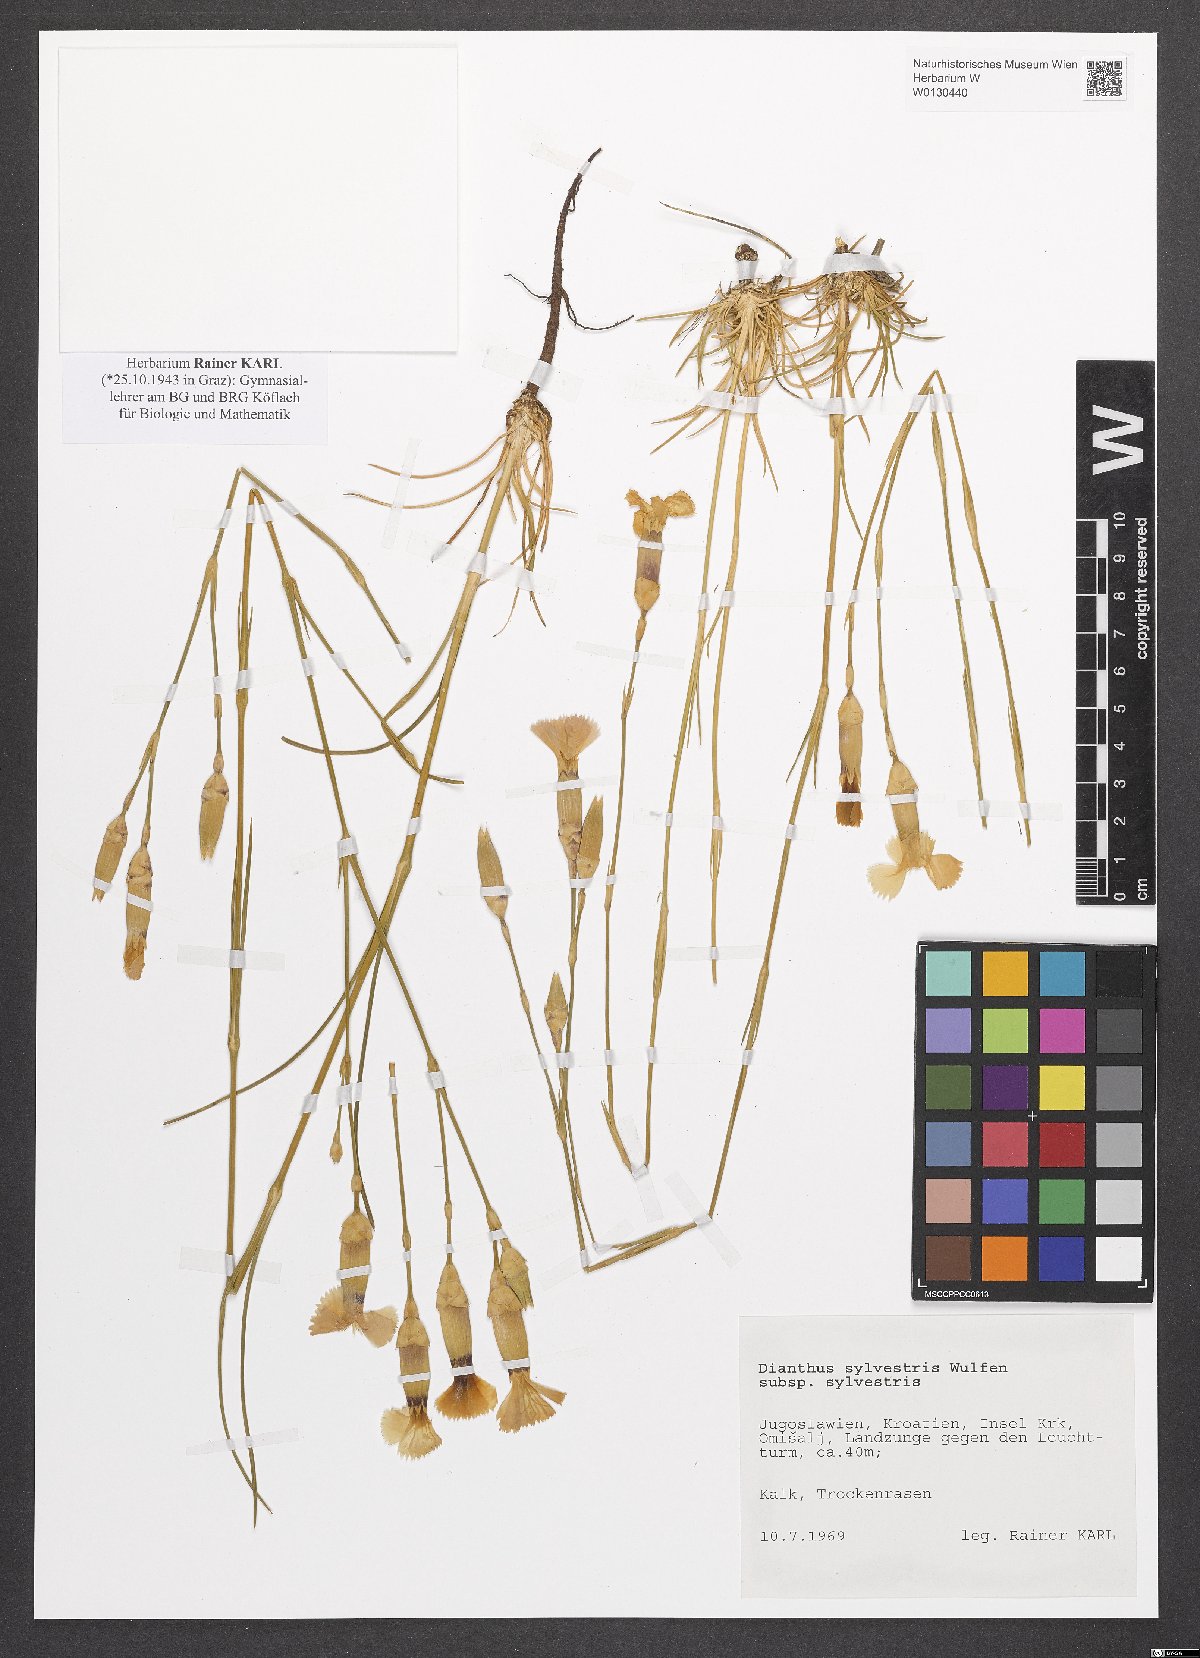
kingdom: Plantae
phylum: Tracheophyta
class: Magnoliopsida
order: Caryophyllales
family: Caryophyllaceae
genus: Dianthus
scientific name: Dianthus sylvestris
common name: Wood pink
